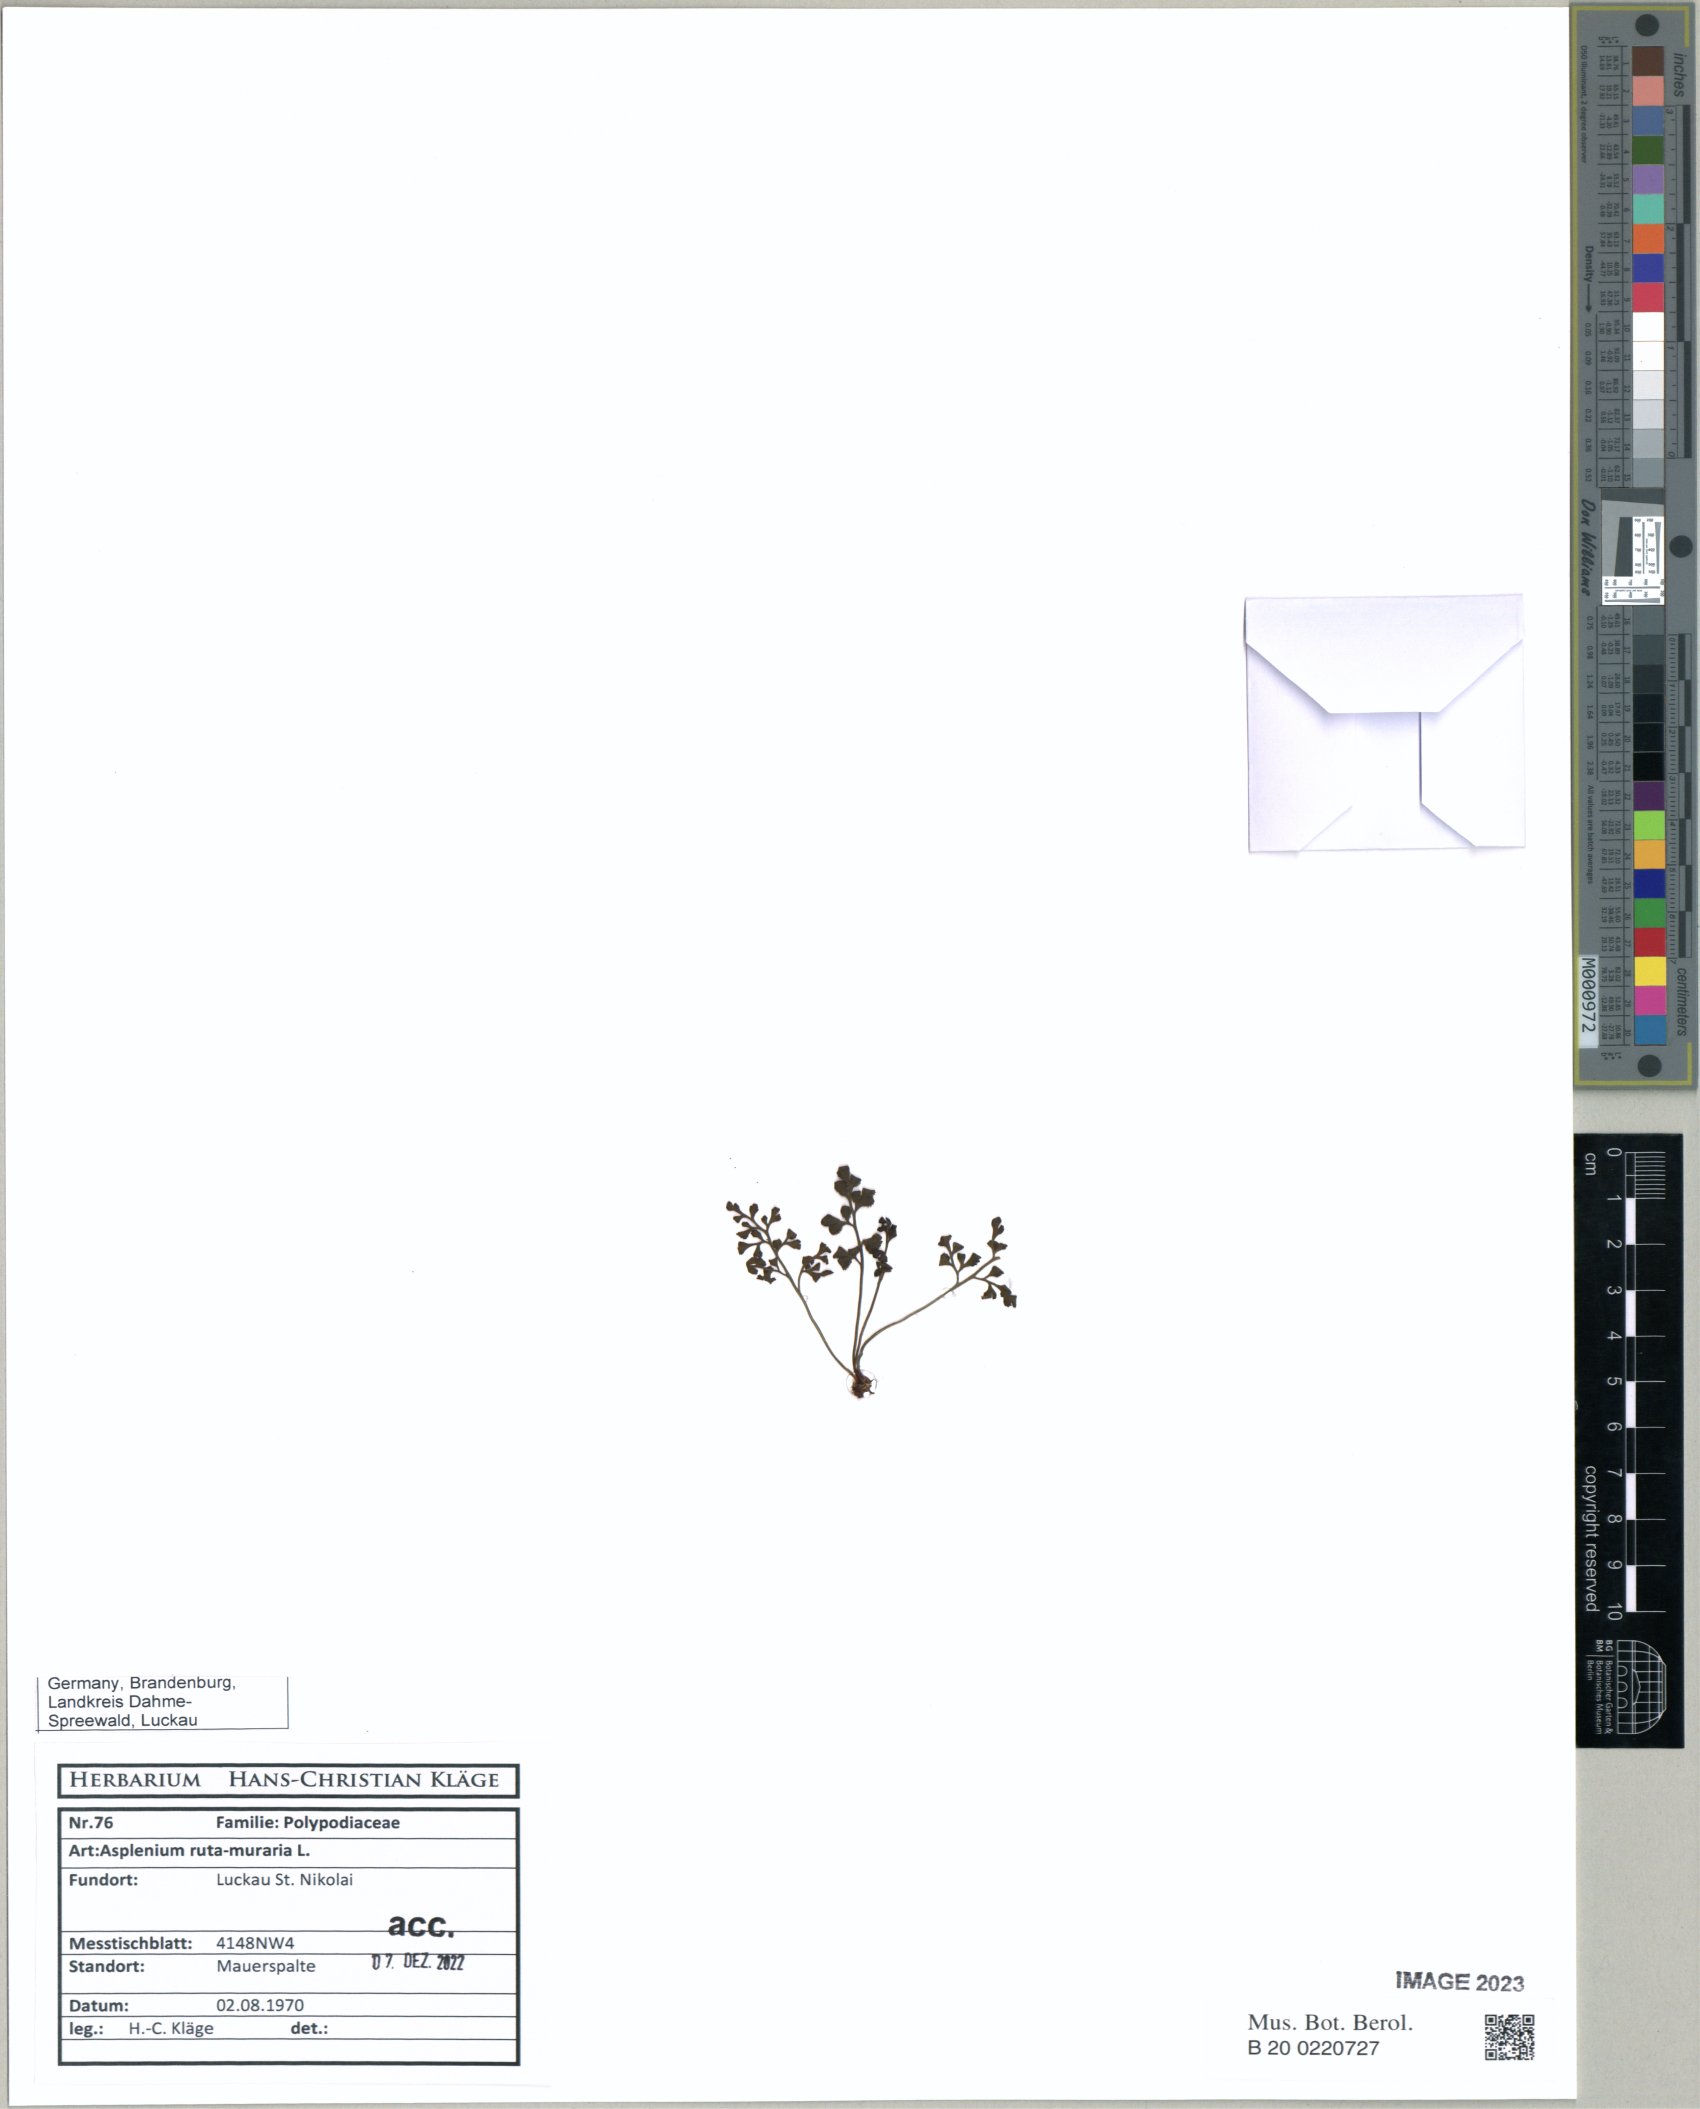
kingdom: Plantae
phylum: Tracheophyta
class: Polypodiopsida
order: Polypodiales
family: Aspleniaceae
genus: Asplenium
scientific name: Asplenium ruta-muraria
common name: Wall-rue
